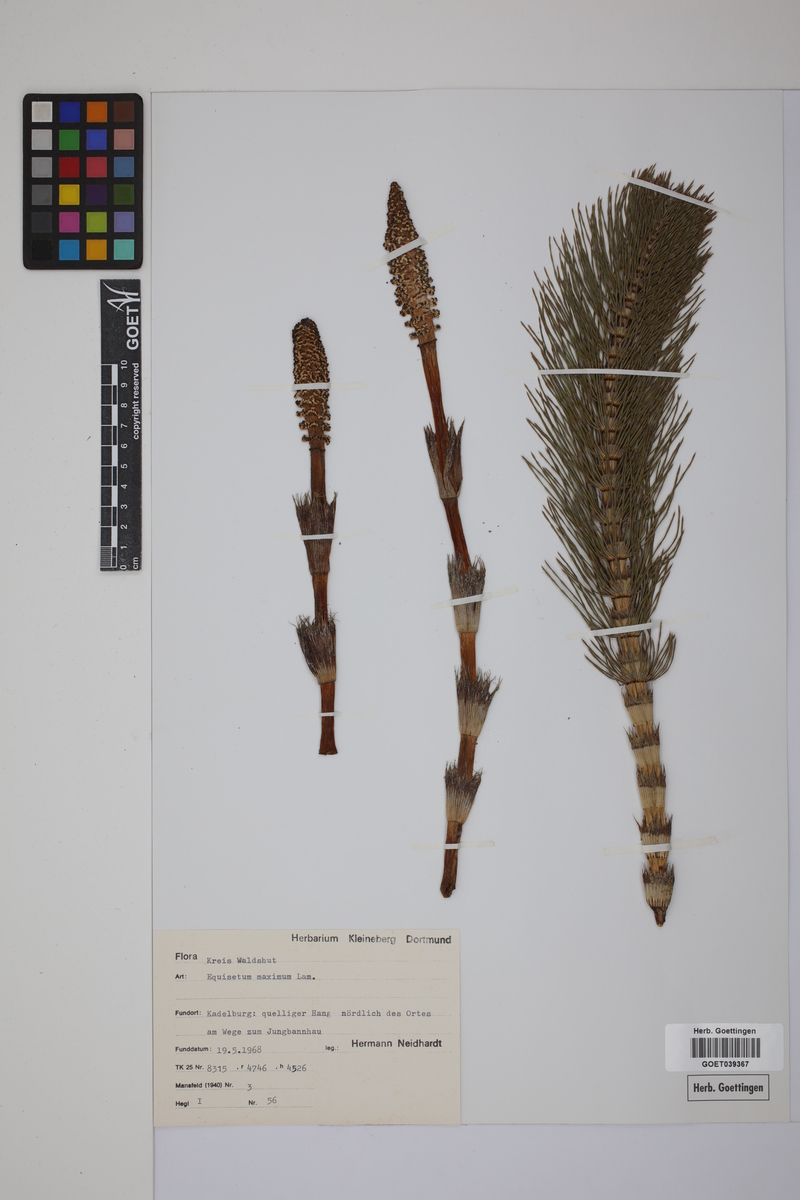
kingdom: Plantae
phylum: Tracheophyta
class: Polypodiopsida
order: Equisetales
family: Equisetaceae
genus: Equisetum
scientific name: Equisetum telmateia
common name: Great horsetail
